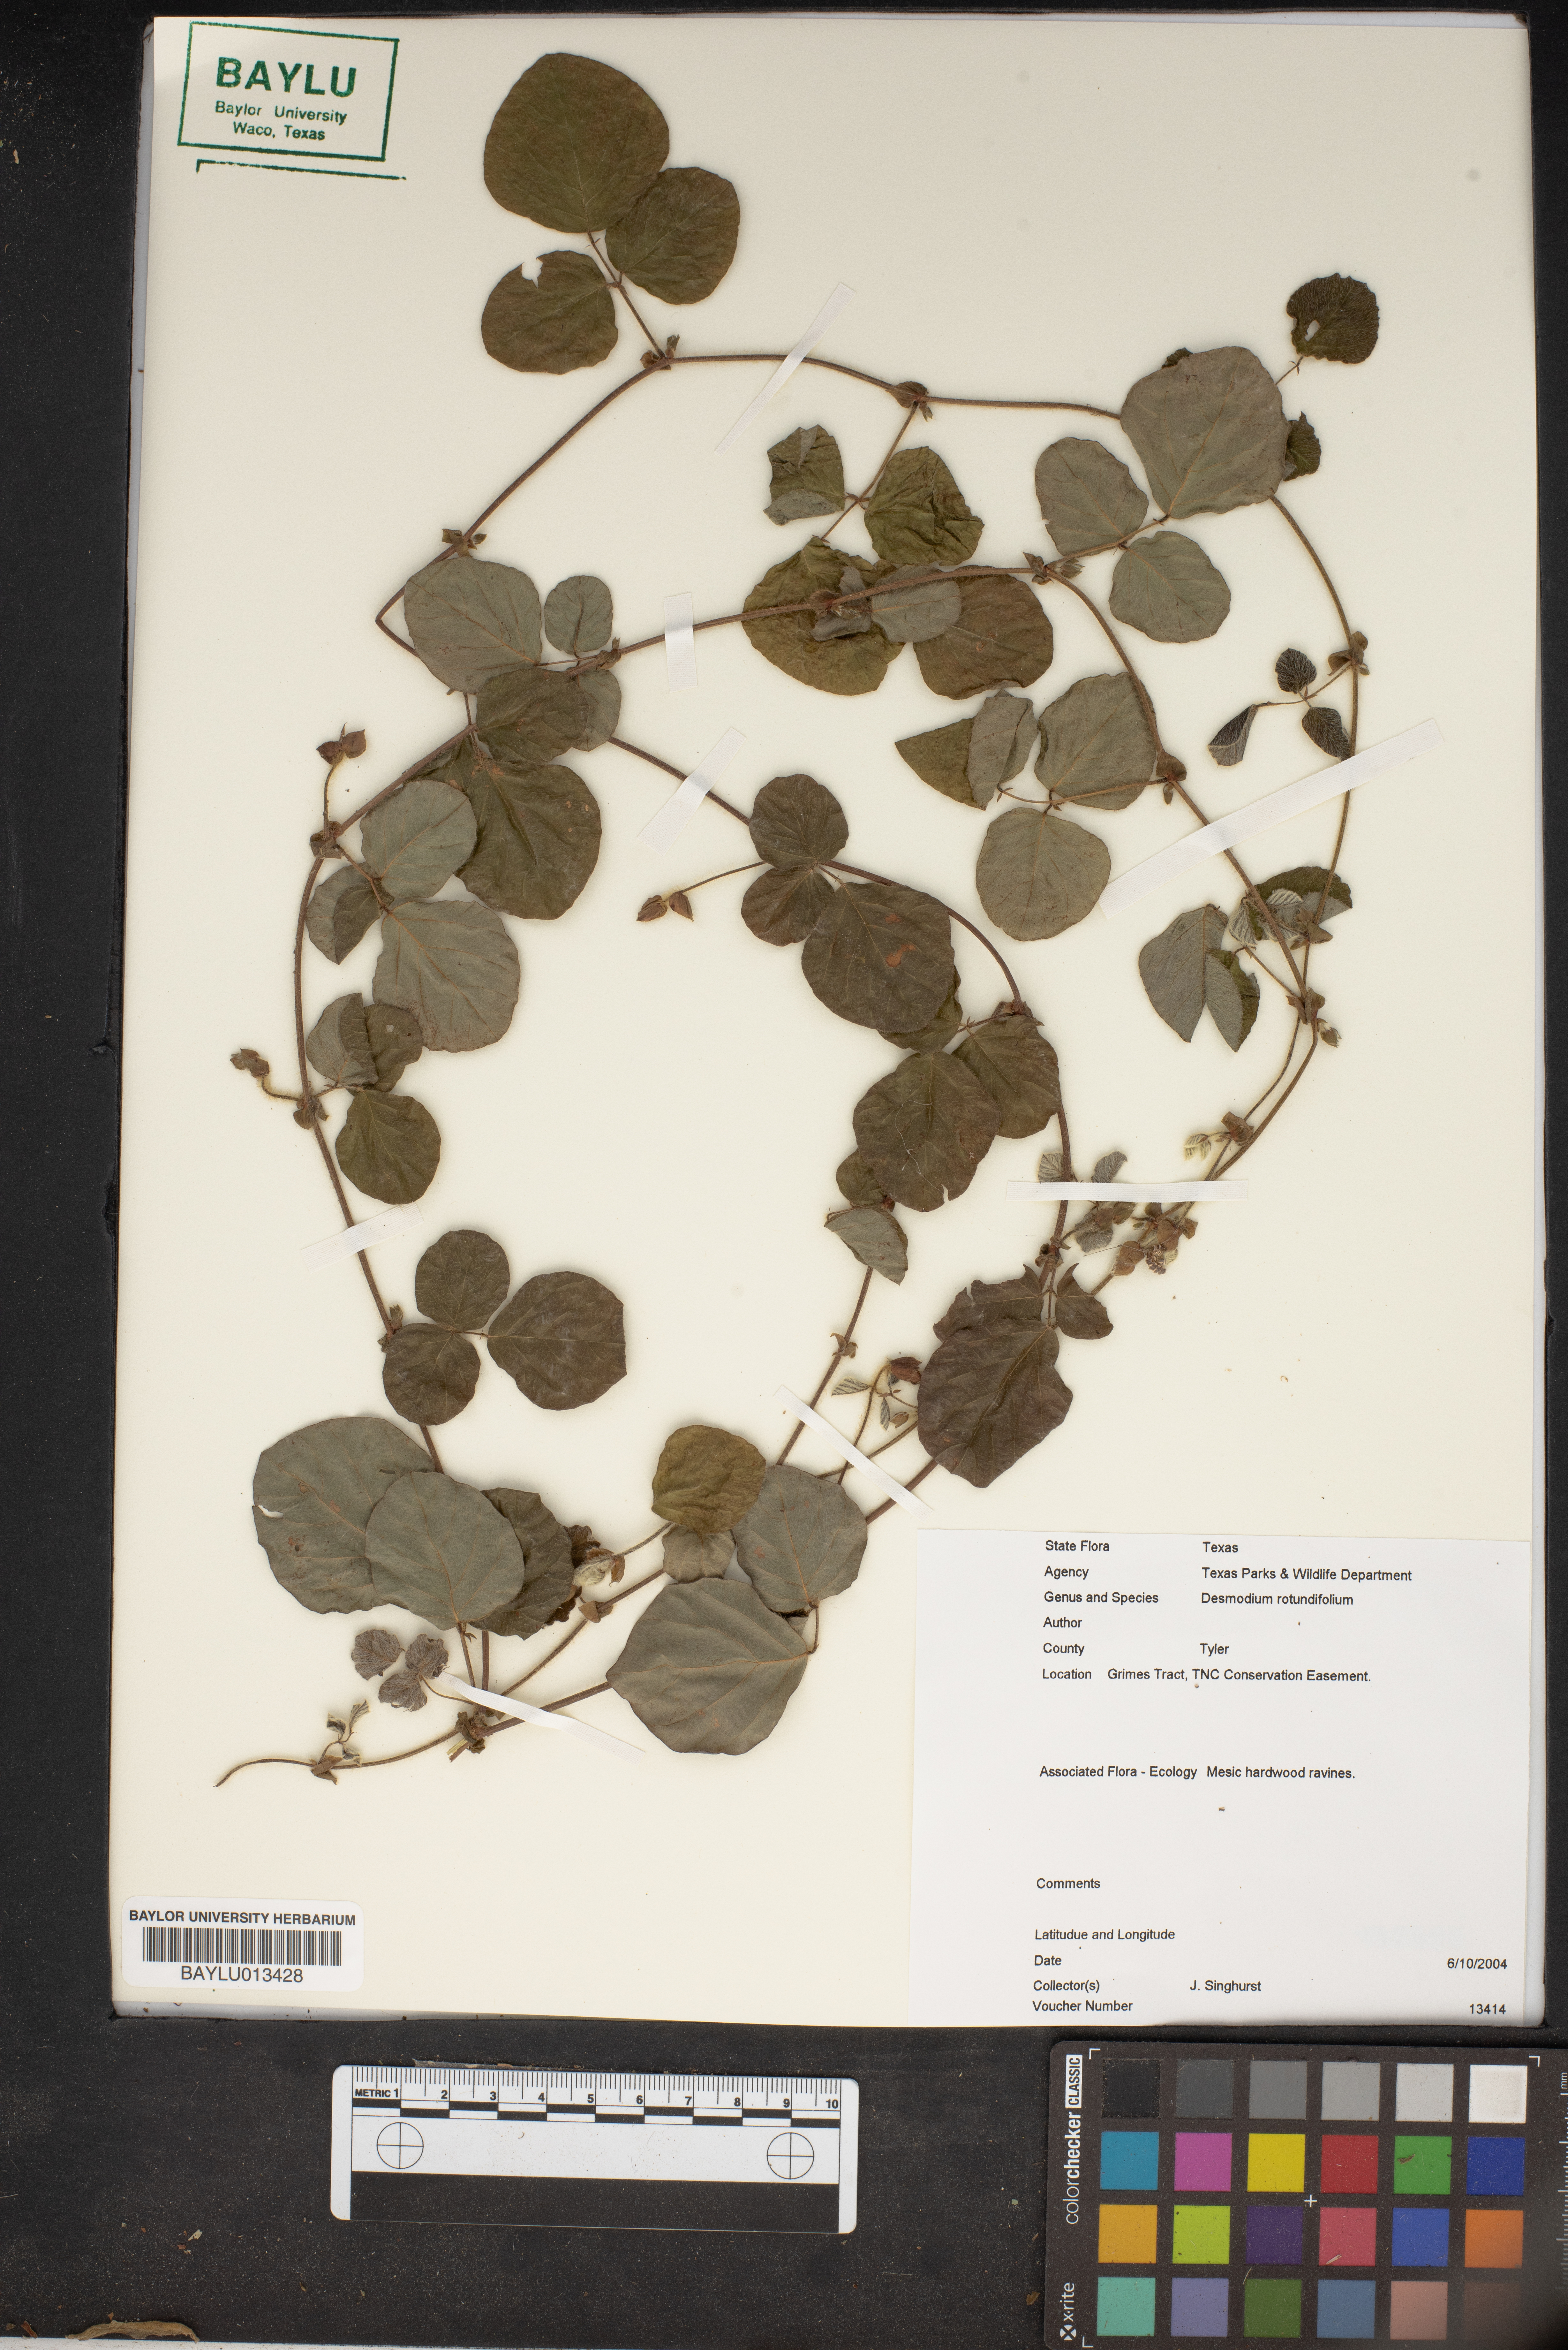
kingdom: Plantae
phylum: Tracheophyta
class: Magnoliopsida
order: Fabales
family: Fabaceae
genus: Desmodium
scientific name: Desmodium rotundifolium
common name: Dollarleaf
